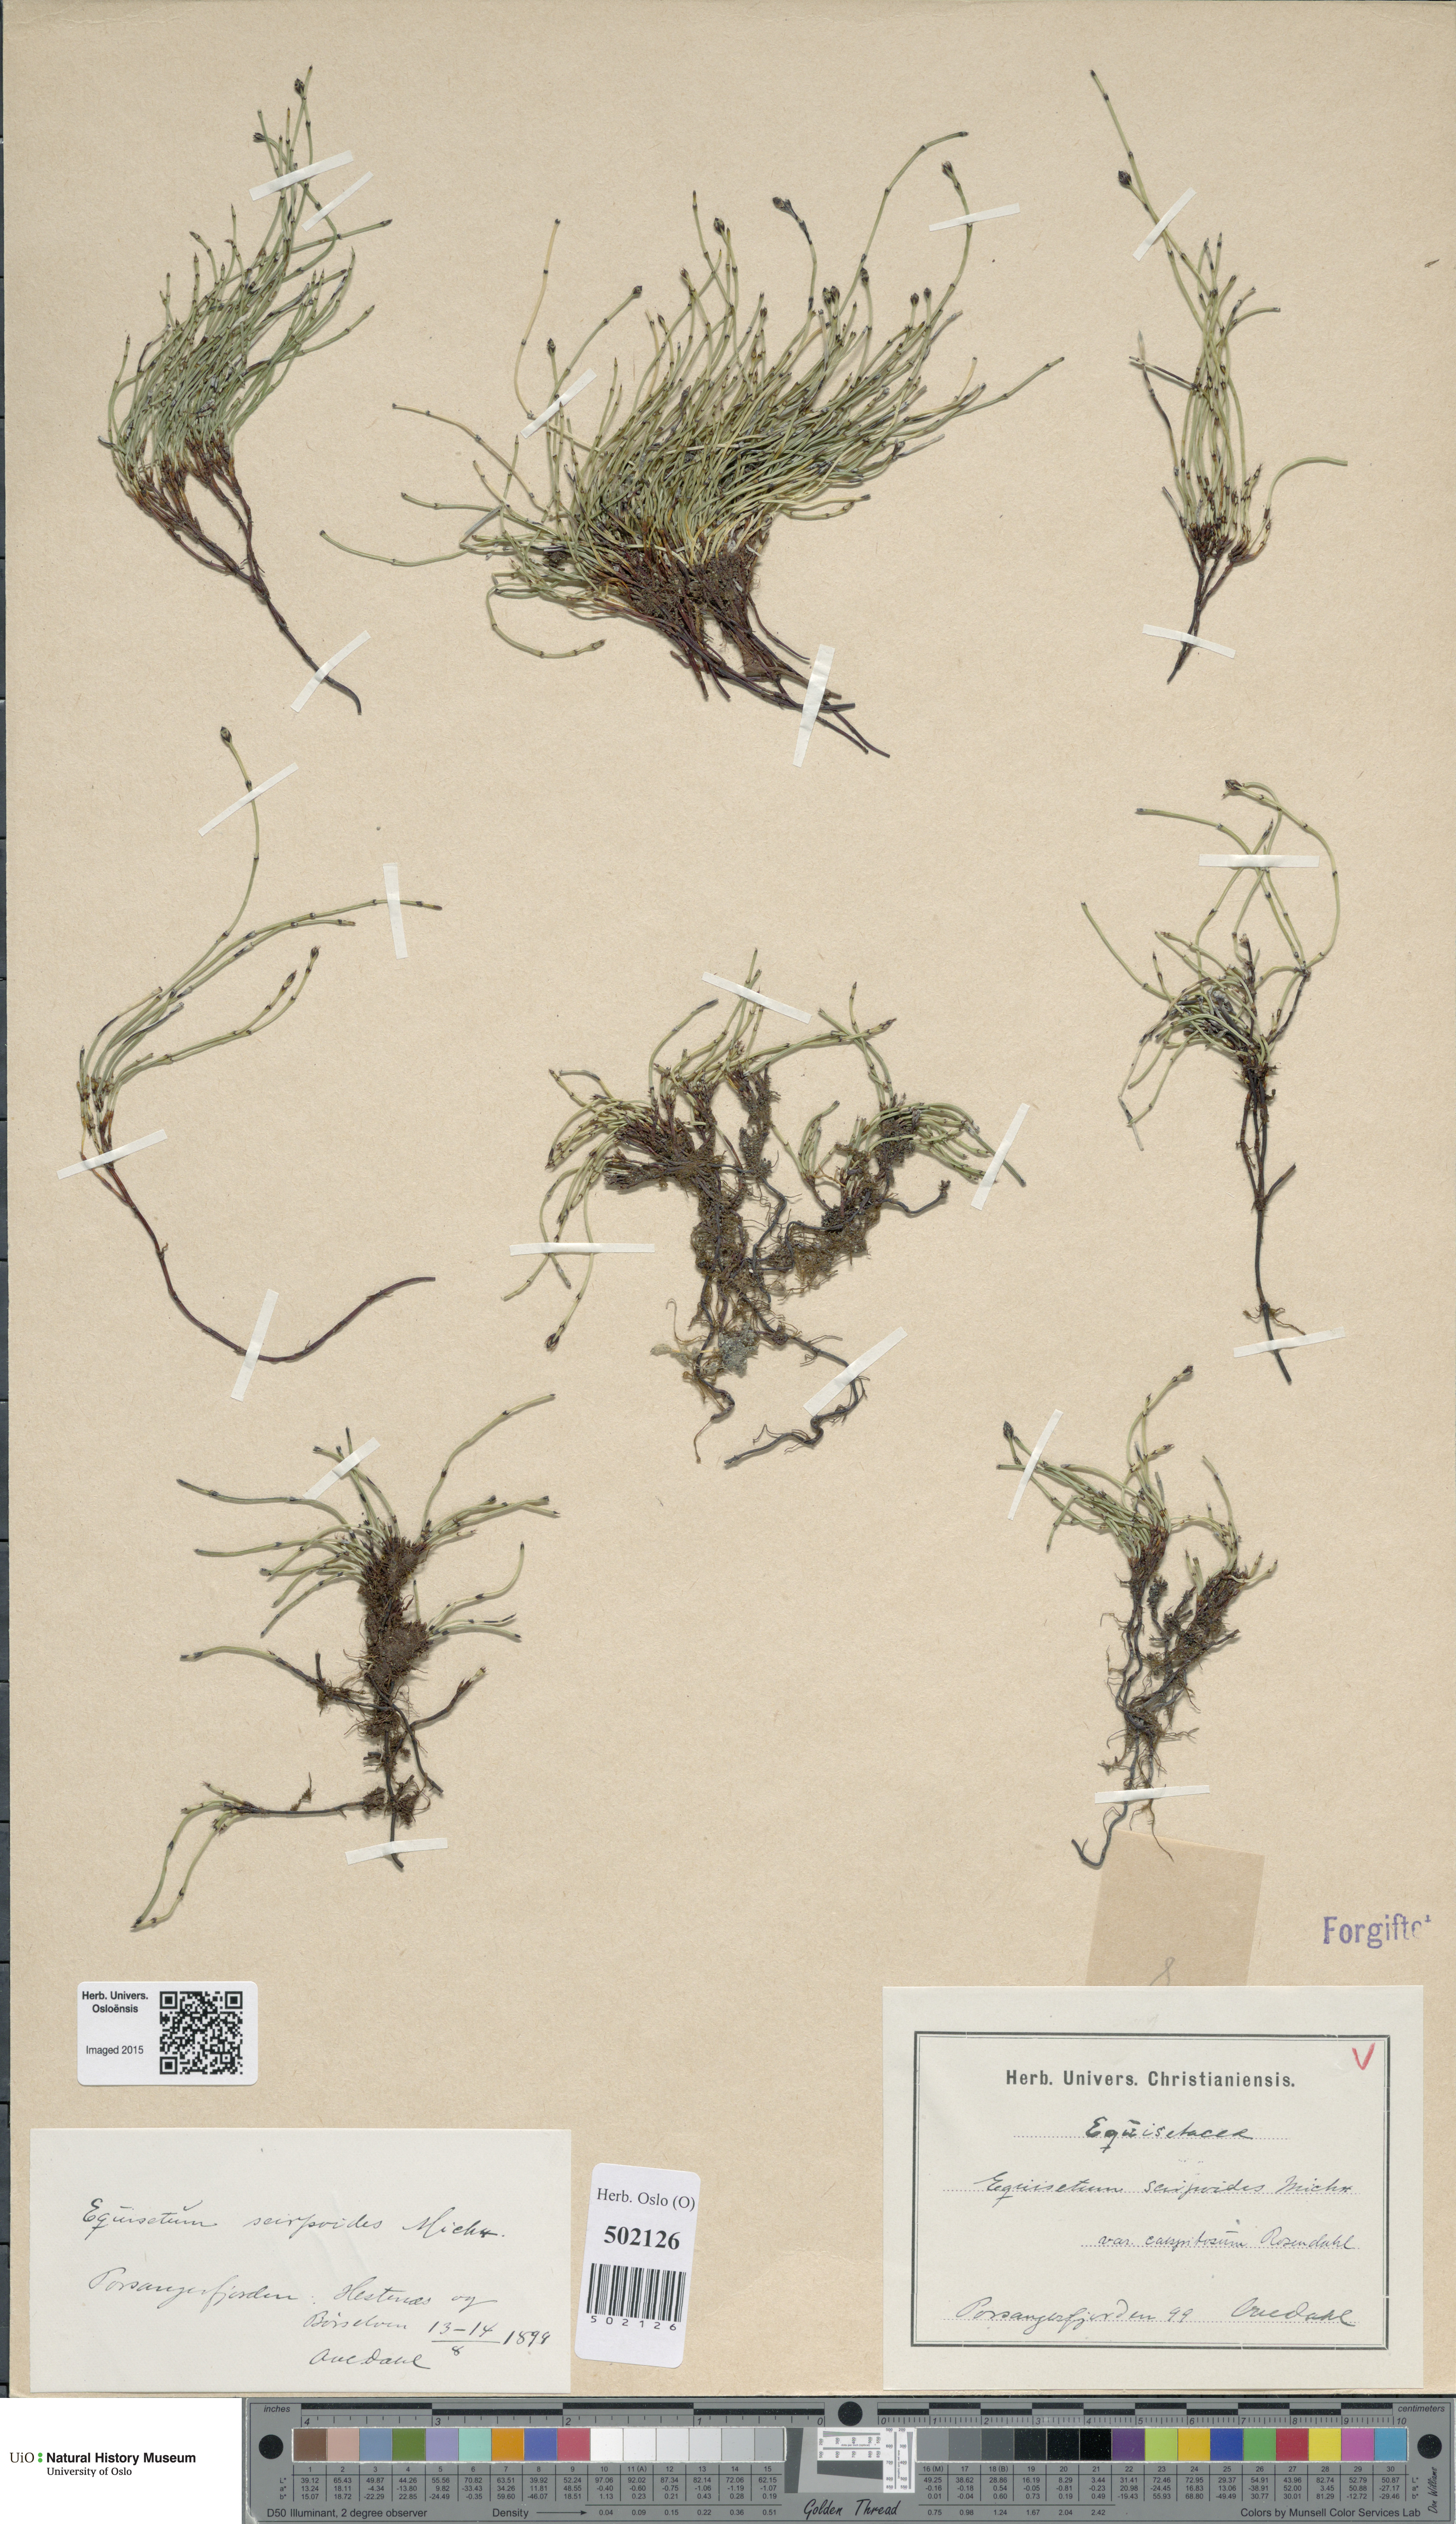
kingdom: Plantae
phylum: Tracheophyta
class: Polypodiopsida
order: Equisetales
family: Equisetaceae
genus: Equisetum
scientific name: Equisetum scirpoides
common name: Delicate horsetail
